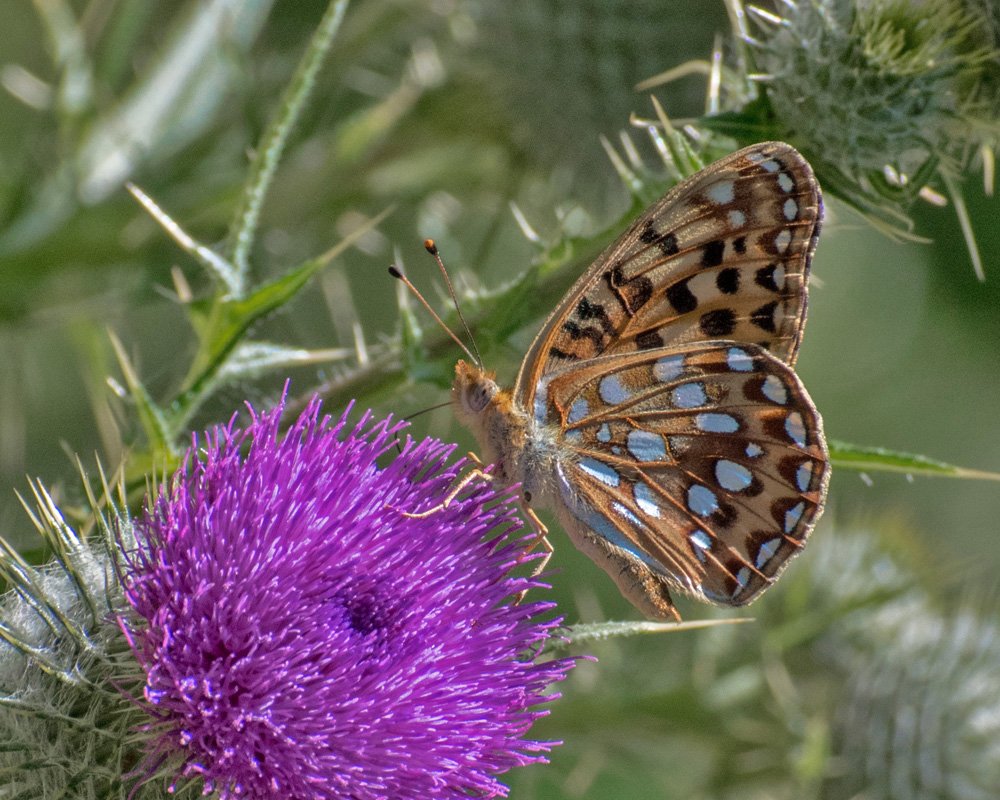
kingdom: Animalia
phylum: Arthropoda
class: Insecta
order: Lepidoptera
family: Nymphalidae
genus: Speyeria
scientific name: Speyeria zerene
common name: Zerene Fritillary
